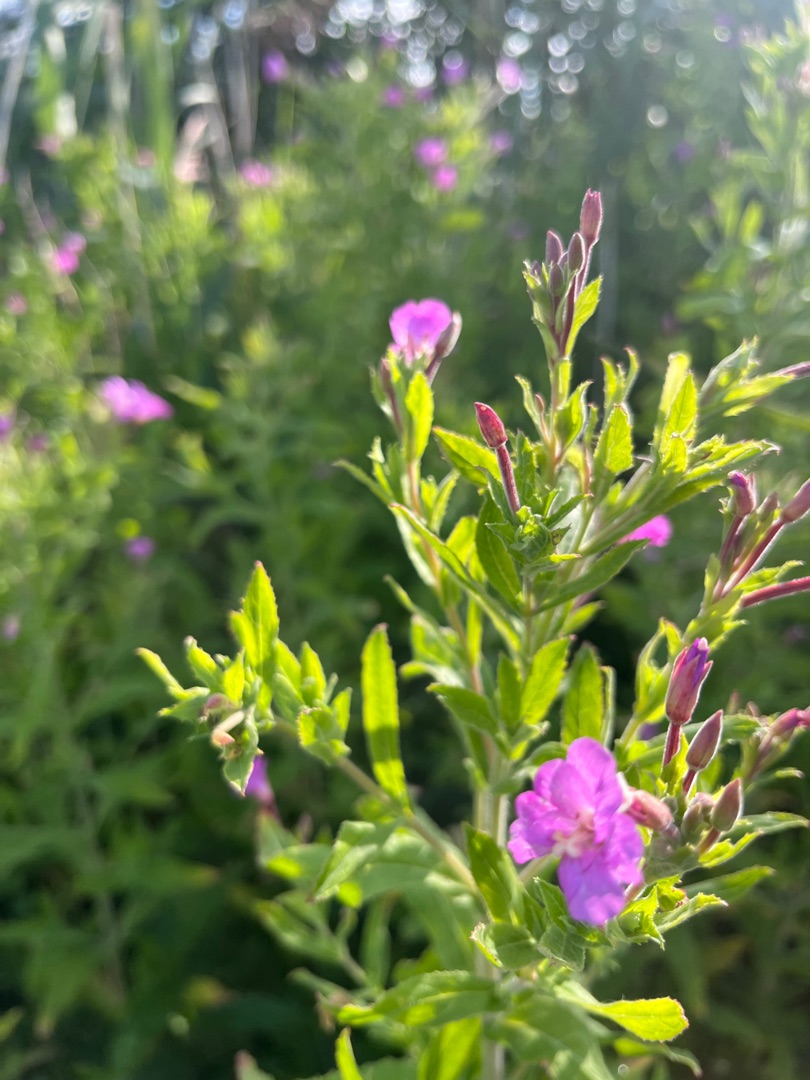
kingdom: Plantae
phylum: Tracheophyta
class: Magnoliopsida
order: Myrtales
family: Onagraceae
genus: Epilobium
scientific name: Epilobium hirsutum
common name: Lådden dueurt
